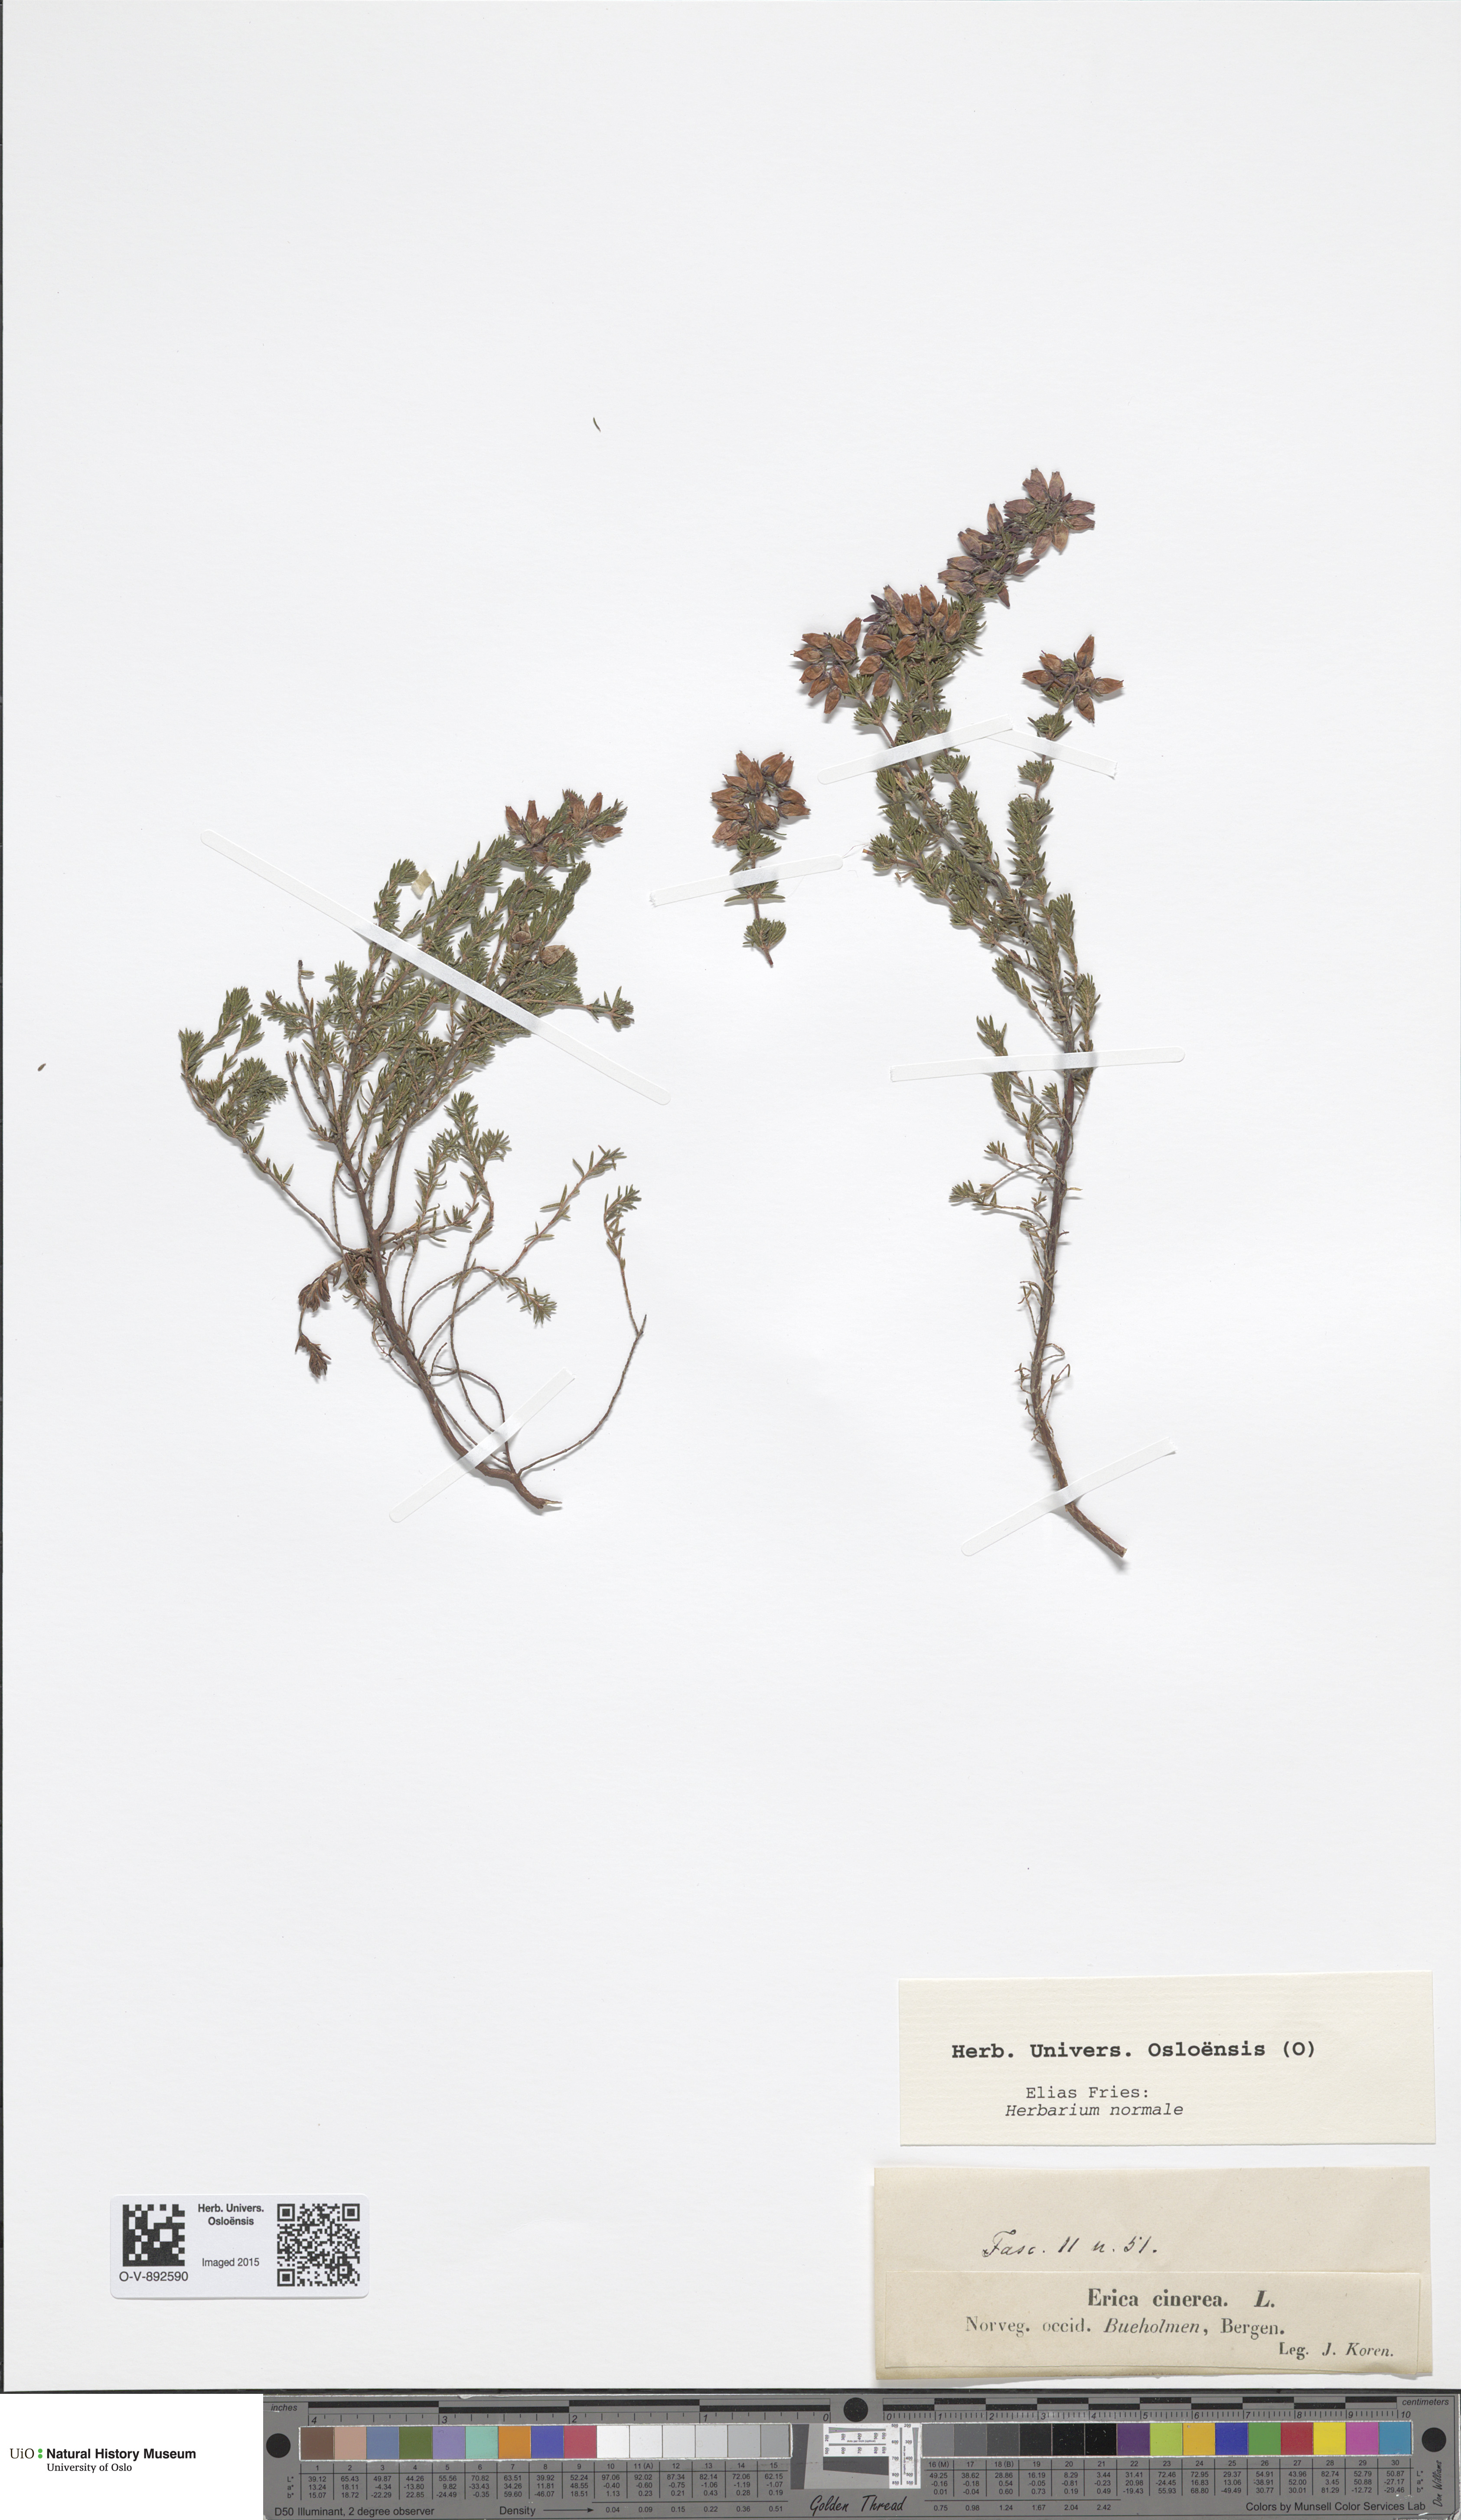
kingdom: Plantae
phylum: Tracheophyta
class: Magnoliopsida
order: Ericales
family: Ericaceae
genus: Erica
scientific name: Erica cinerea
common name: Bell heather
